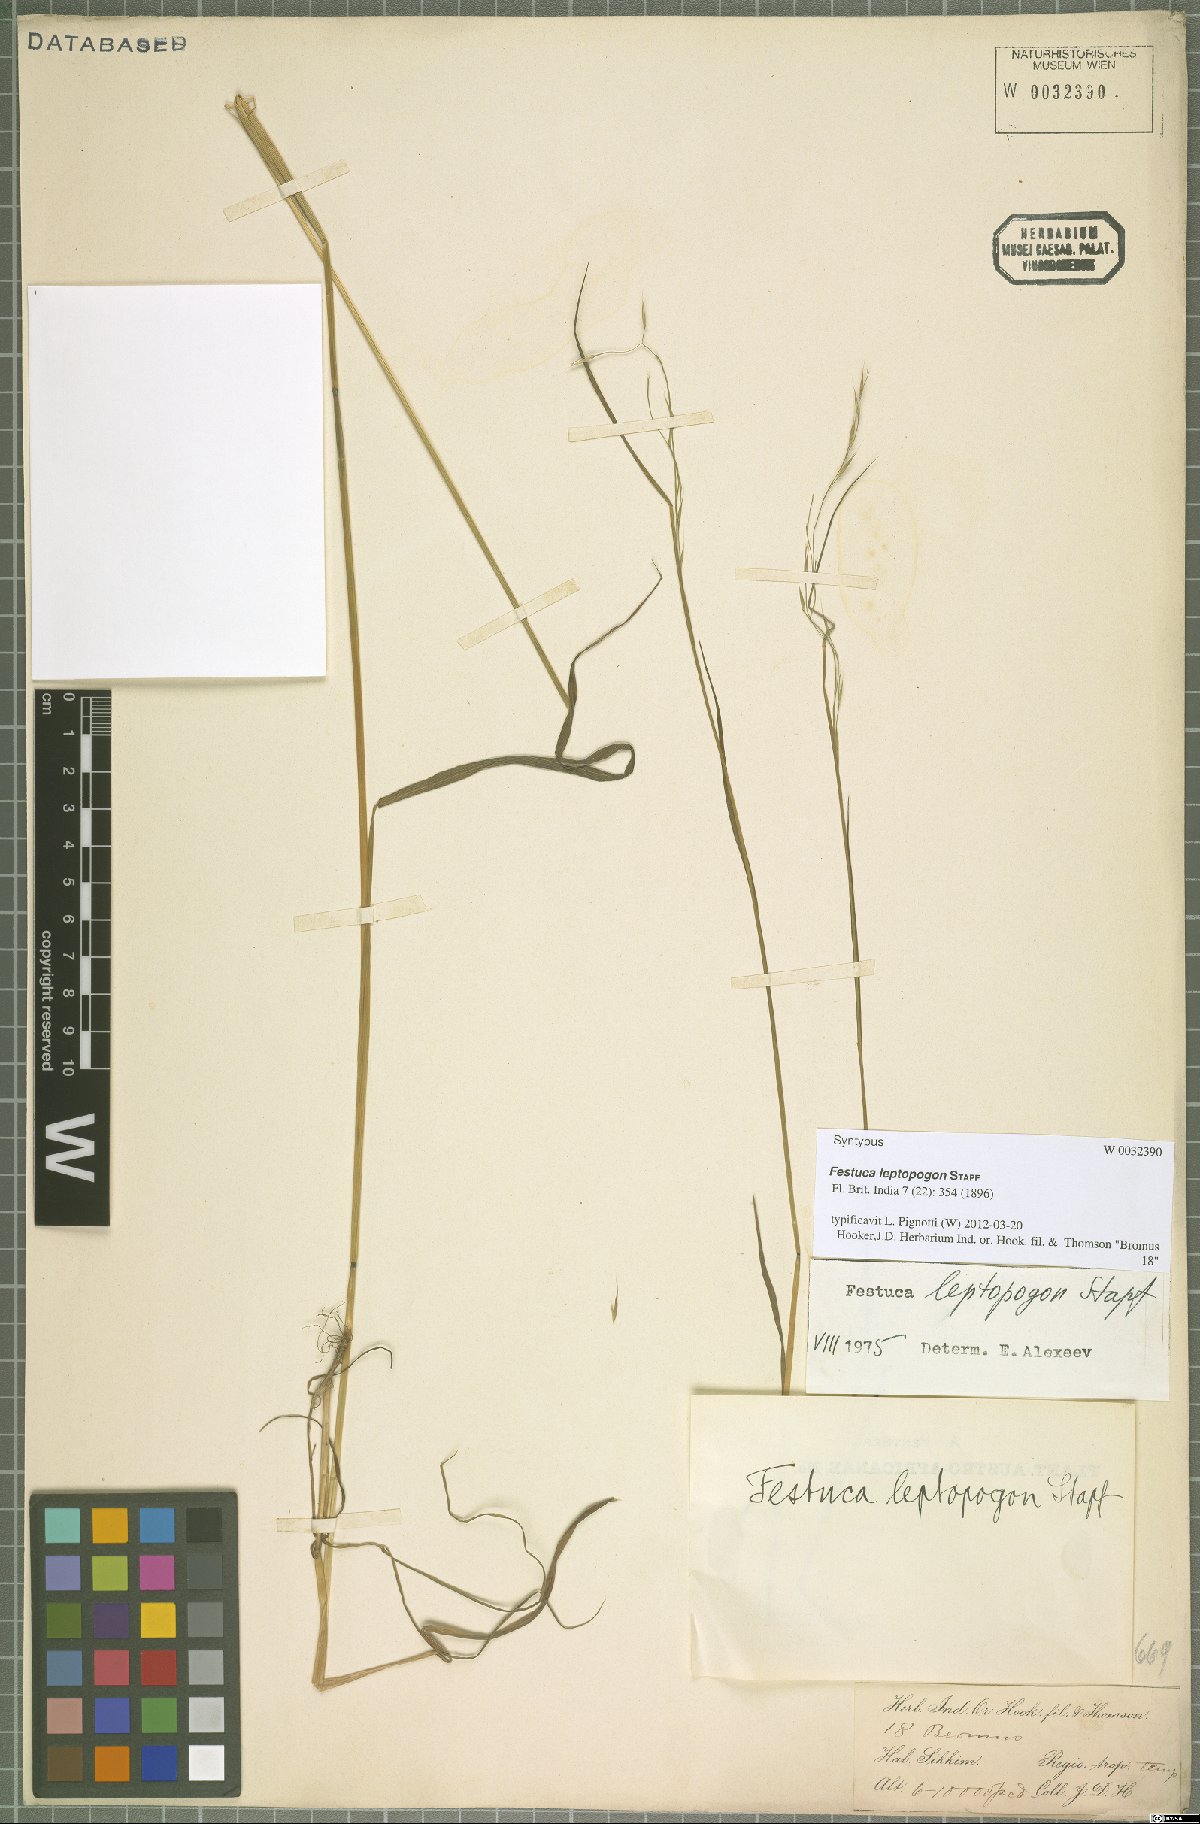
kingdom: Plantae
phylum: Tracheophyta
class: Liliopsida
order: Poales
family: Poaceae
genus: Festuca
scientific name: Festuca leptopogon
